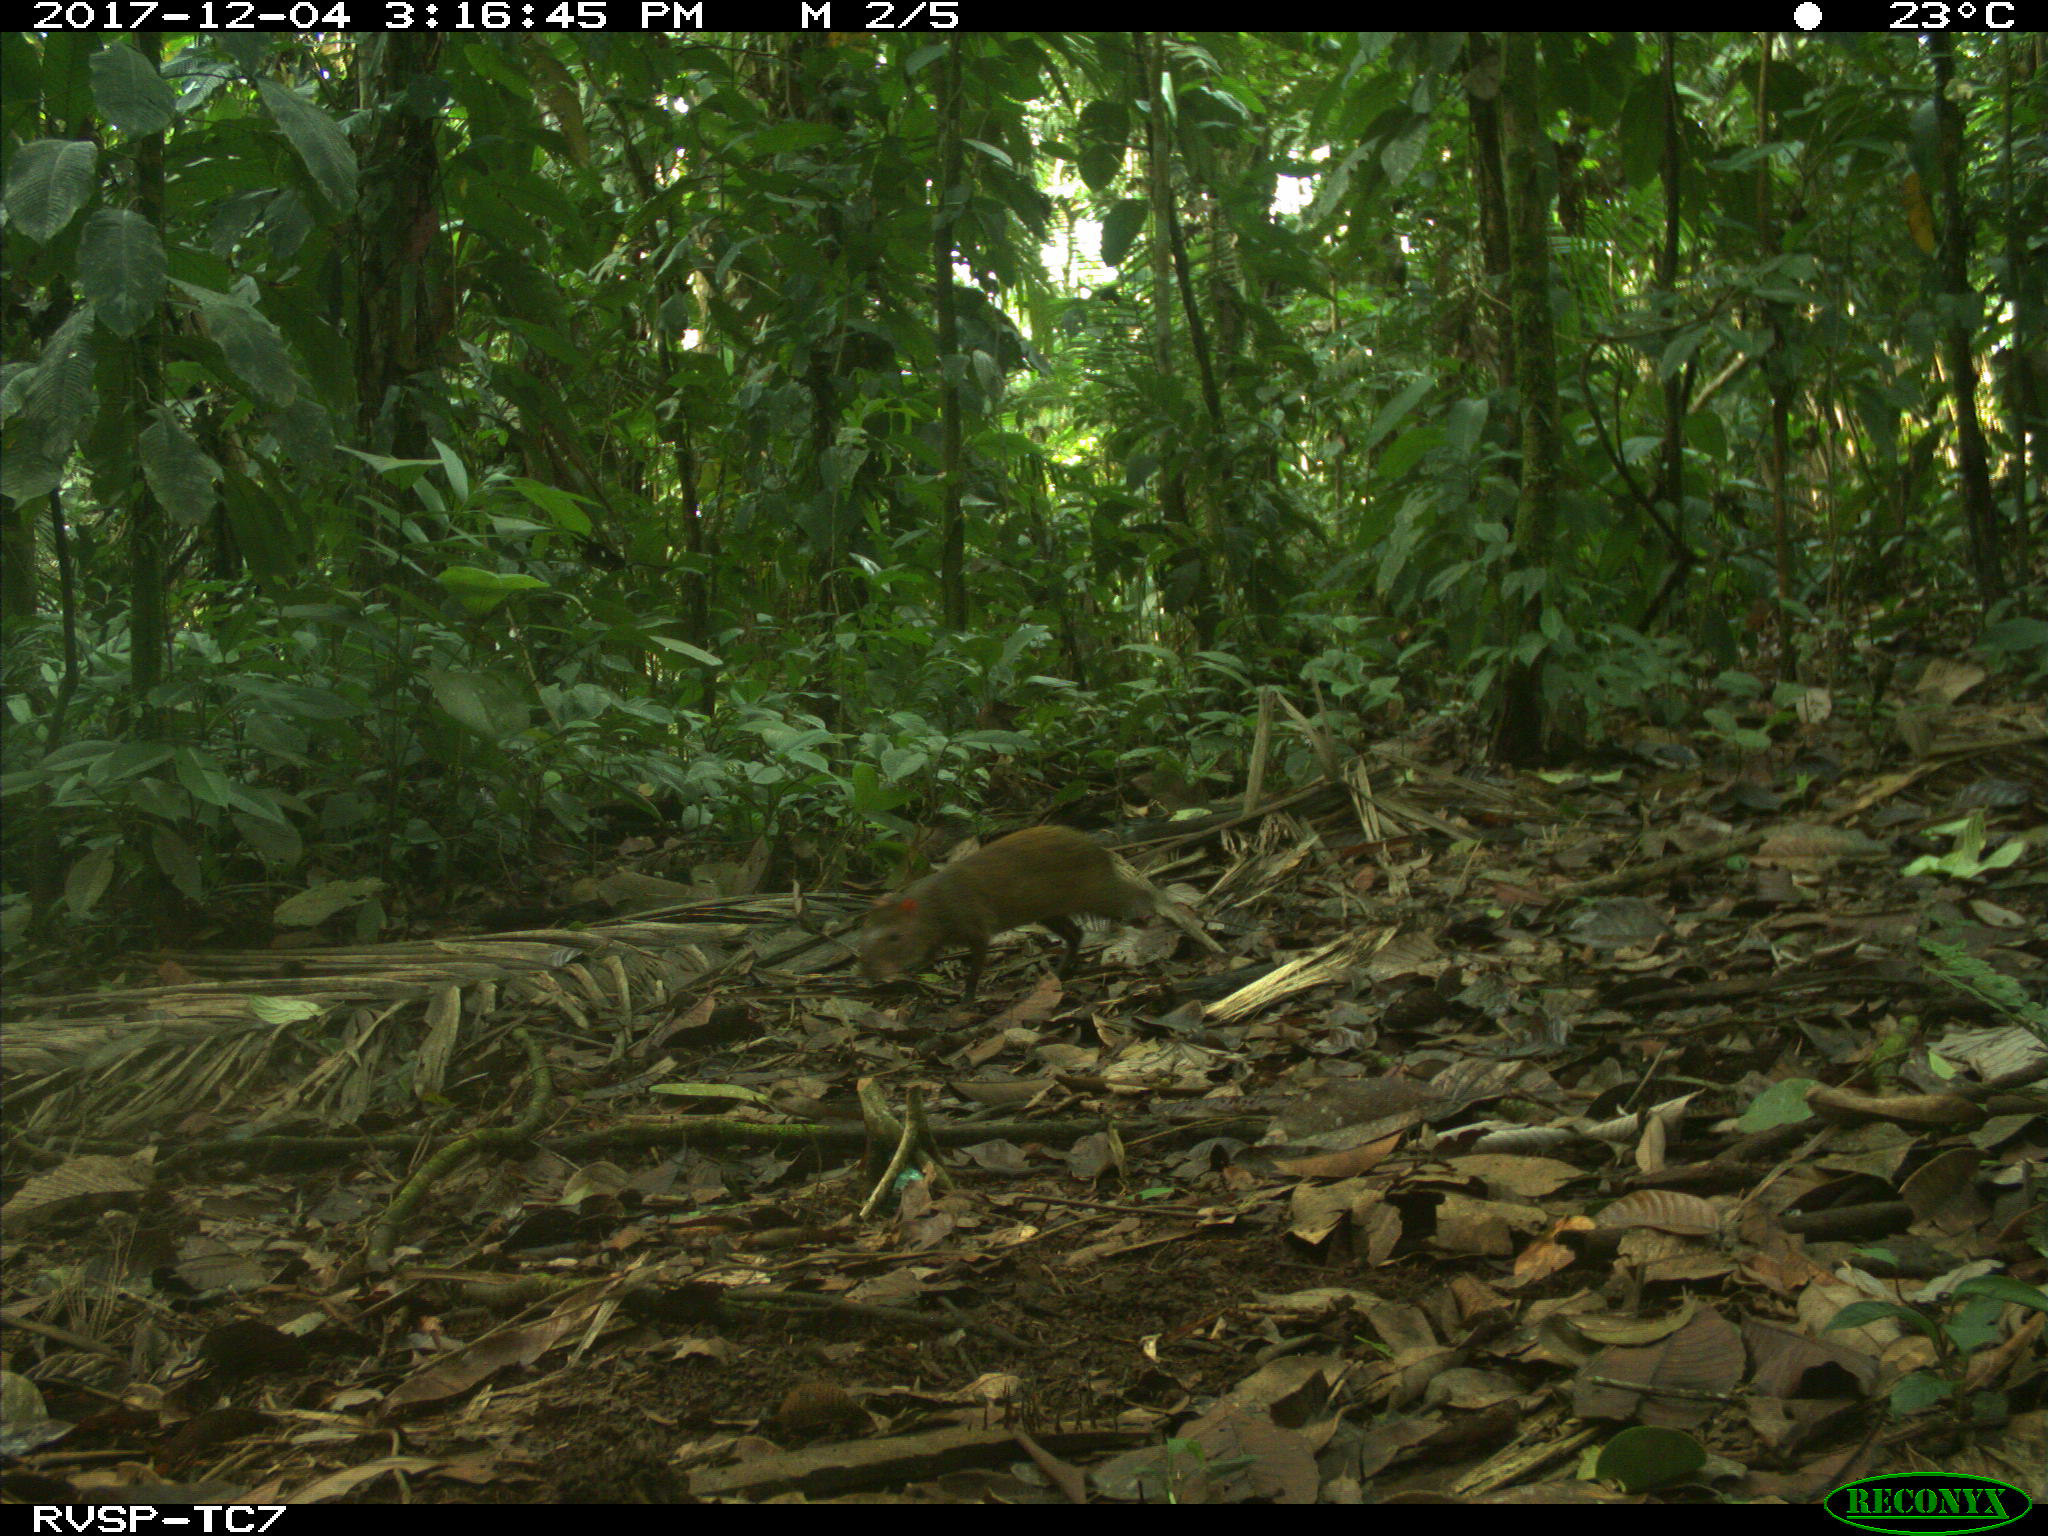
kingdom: Animalia
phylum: Chordata
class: Mammalia
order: Rodentia
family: Dasyproctidae
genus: Dasyprocta
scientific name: Dasyprocta punctata
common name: Central american agouti
